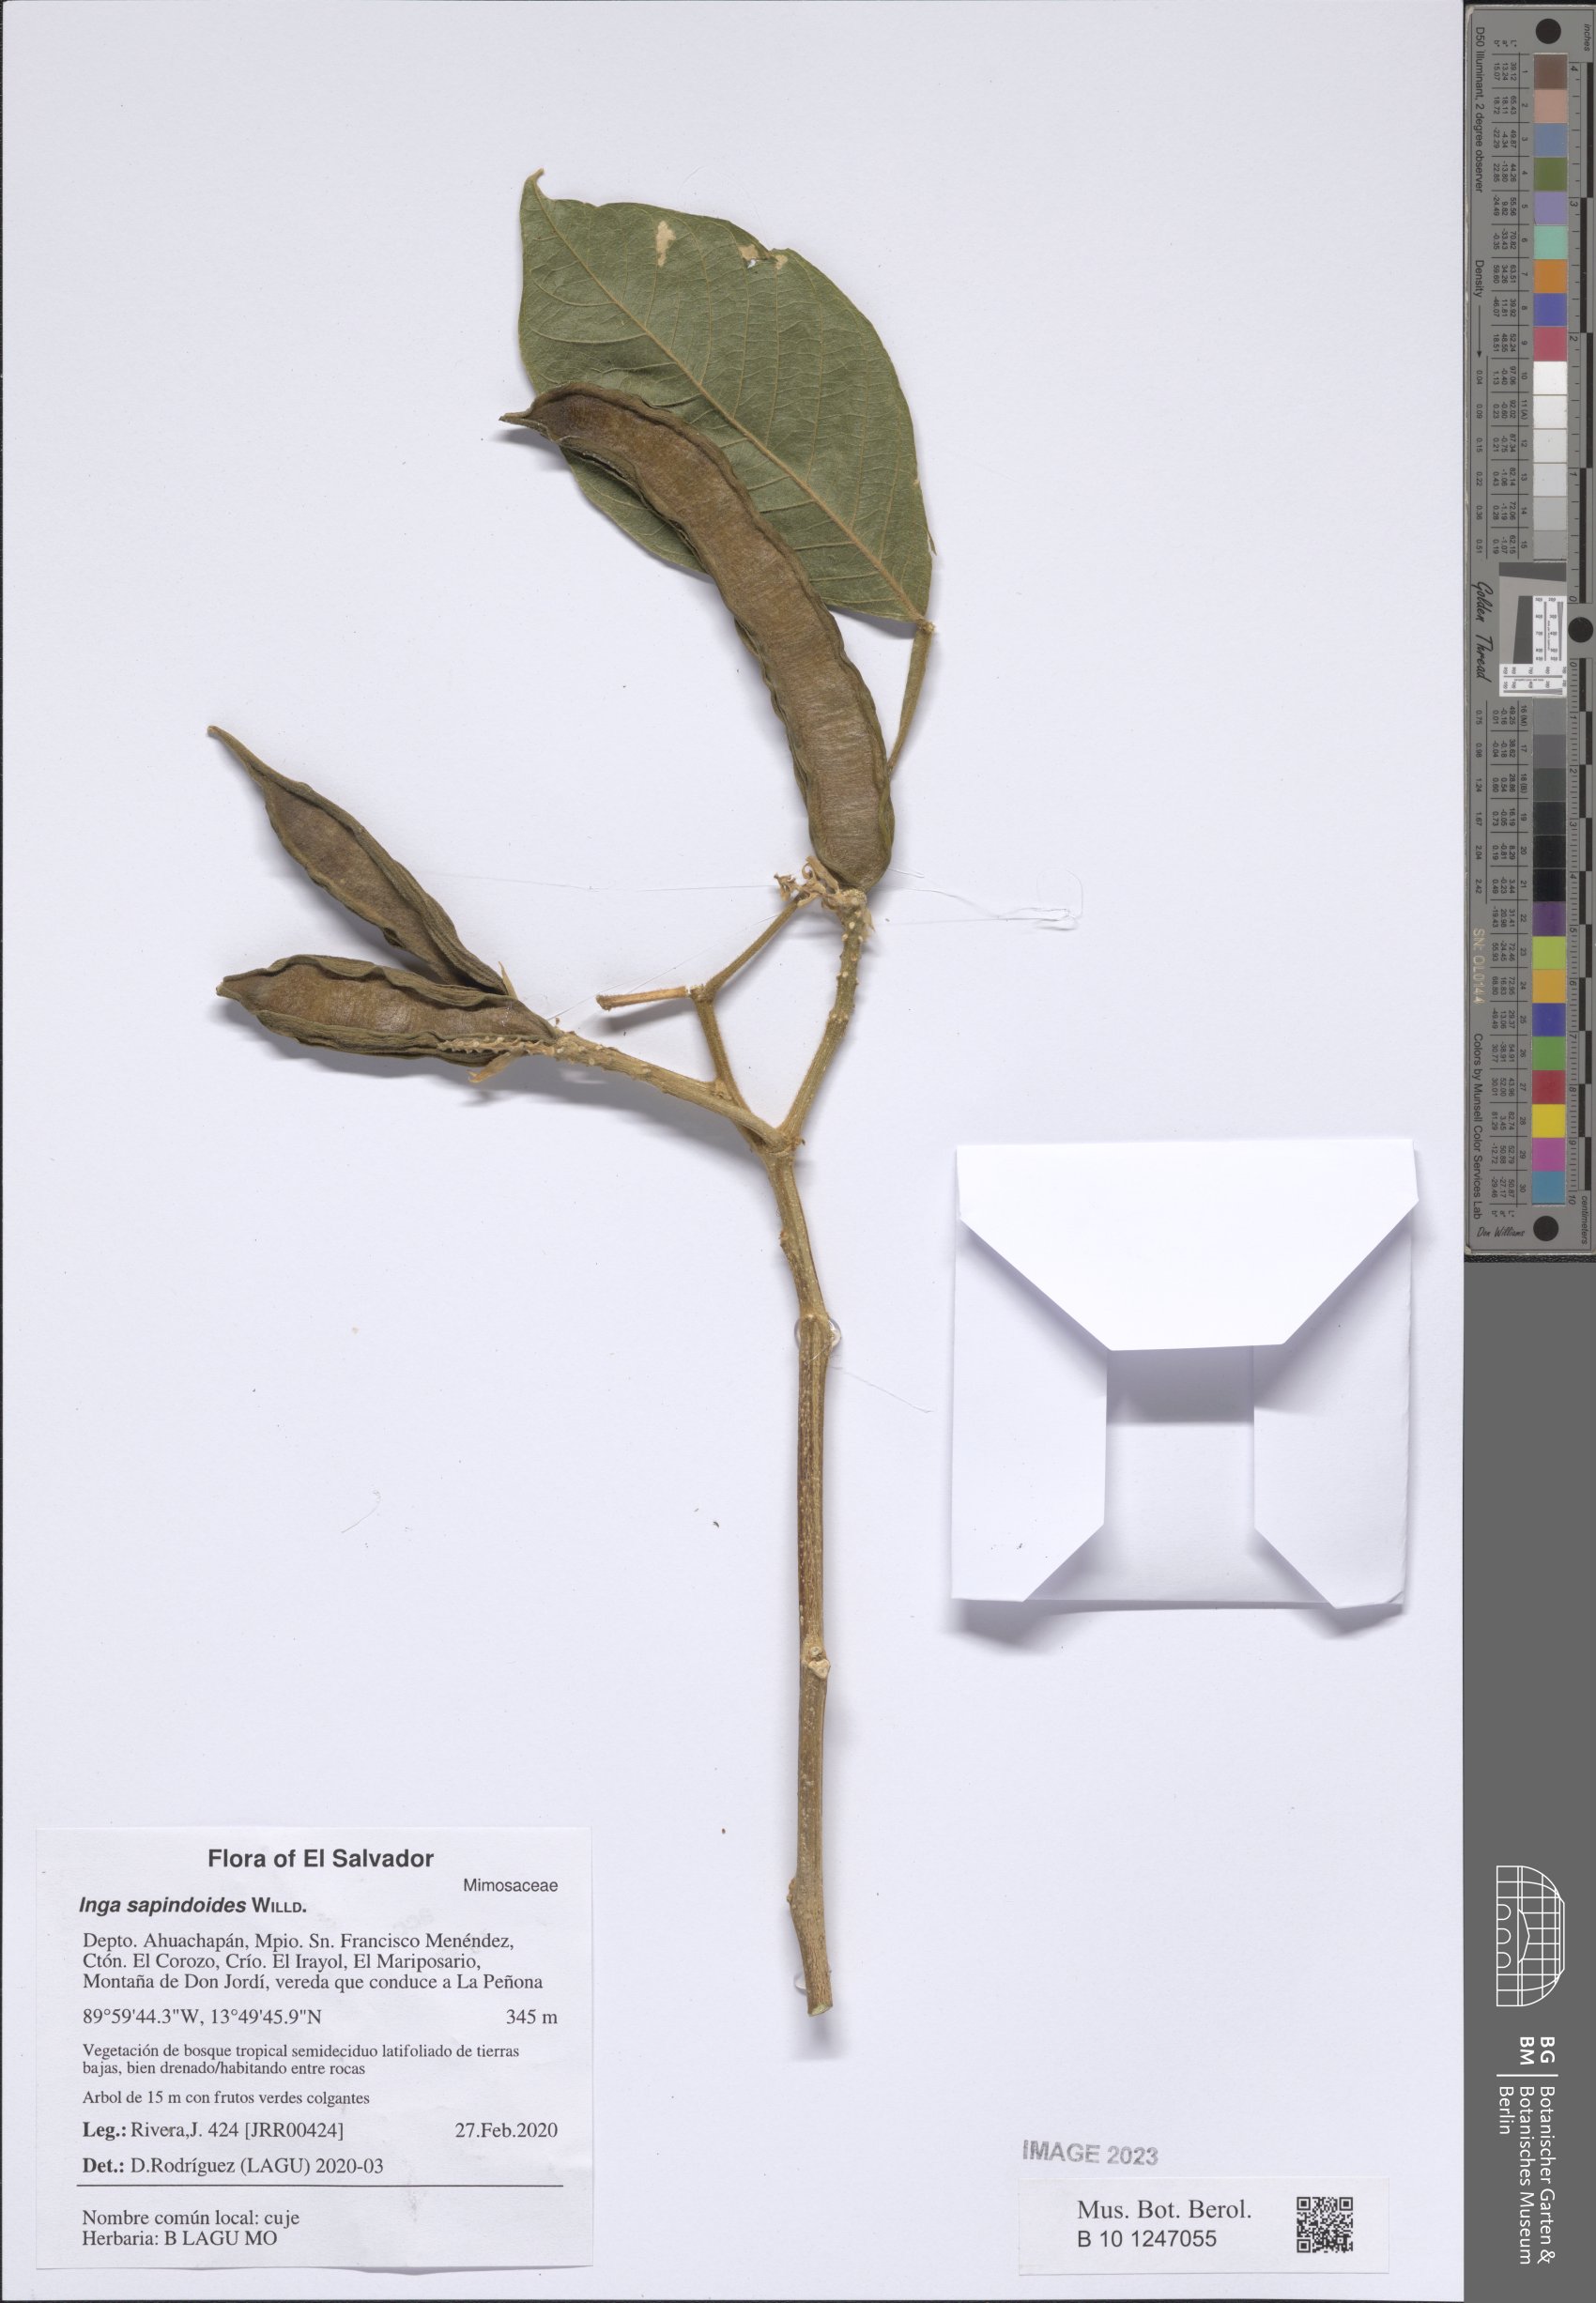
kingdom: Plantae
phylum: Tracheophyta
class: Magnoliopsida
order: Fabales
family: Fabaceae
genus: Inga
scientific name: Inga sapindoides
